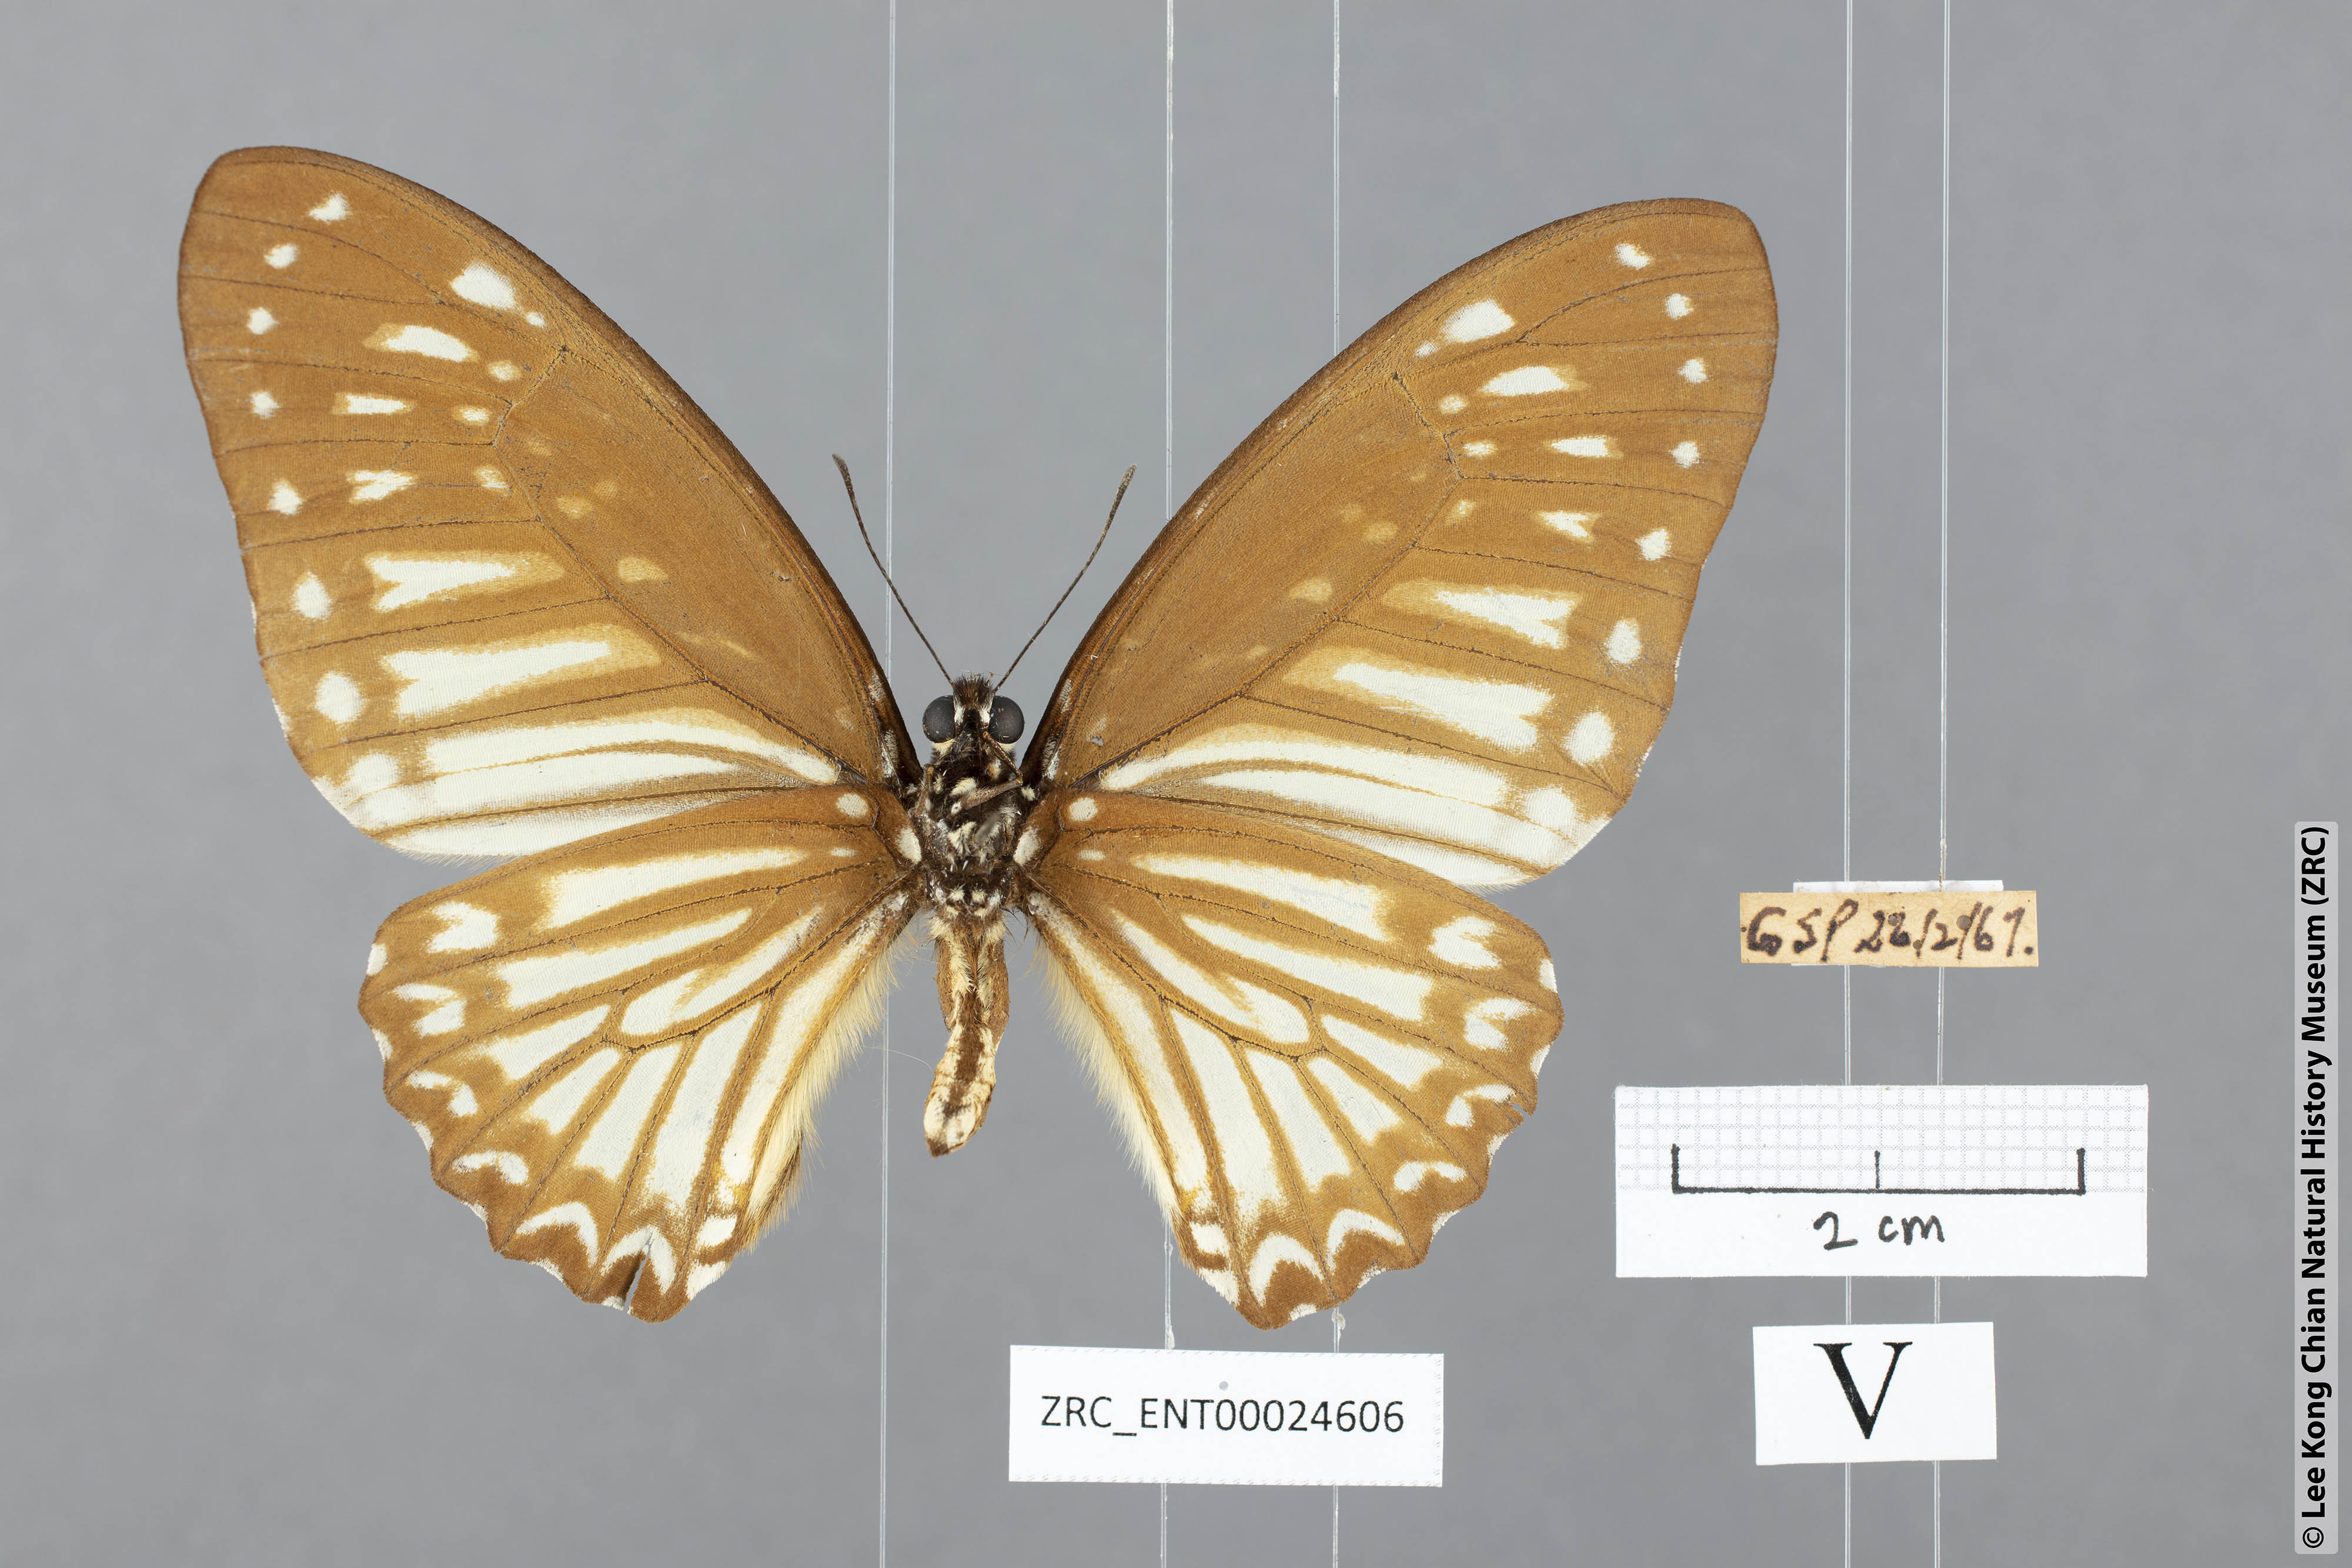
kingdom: Animalia
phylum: Arthropoda
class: Insecta
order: Lepidoptera
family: Papilionidae
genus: Graphium
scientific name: Graphium ramaceus
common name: Pendlebury's zebra
